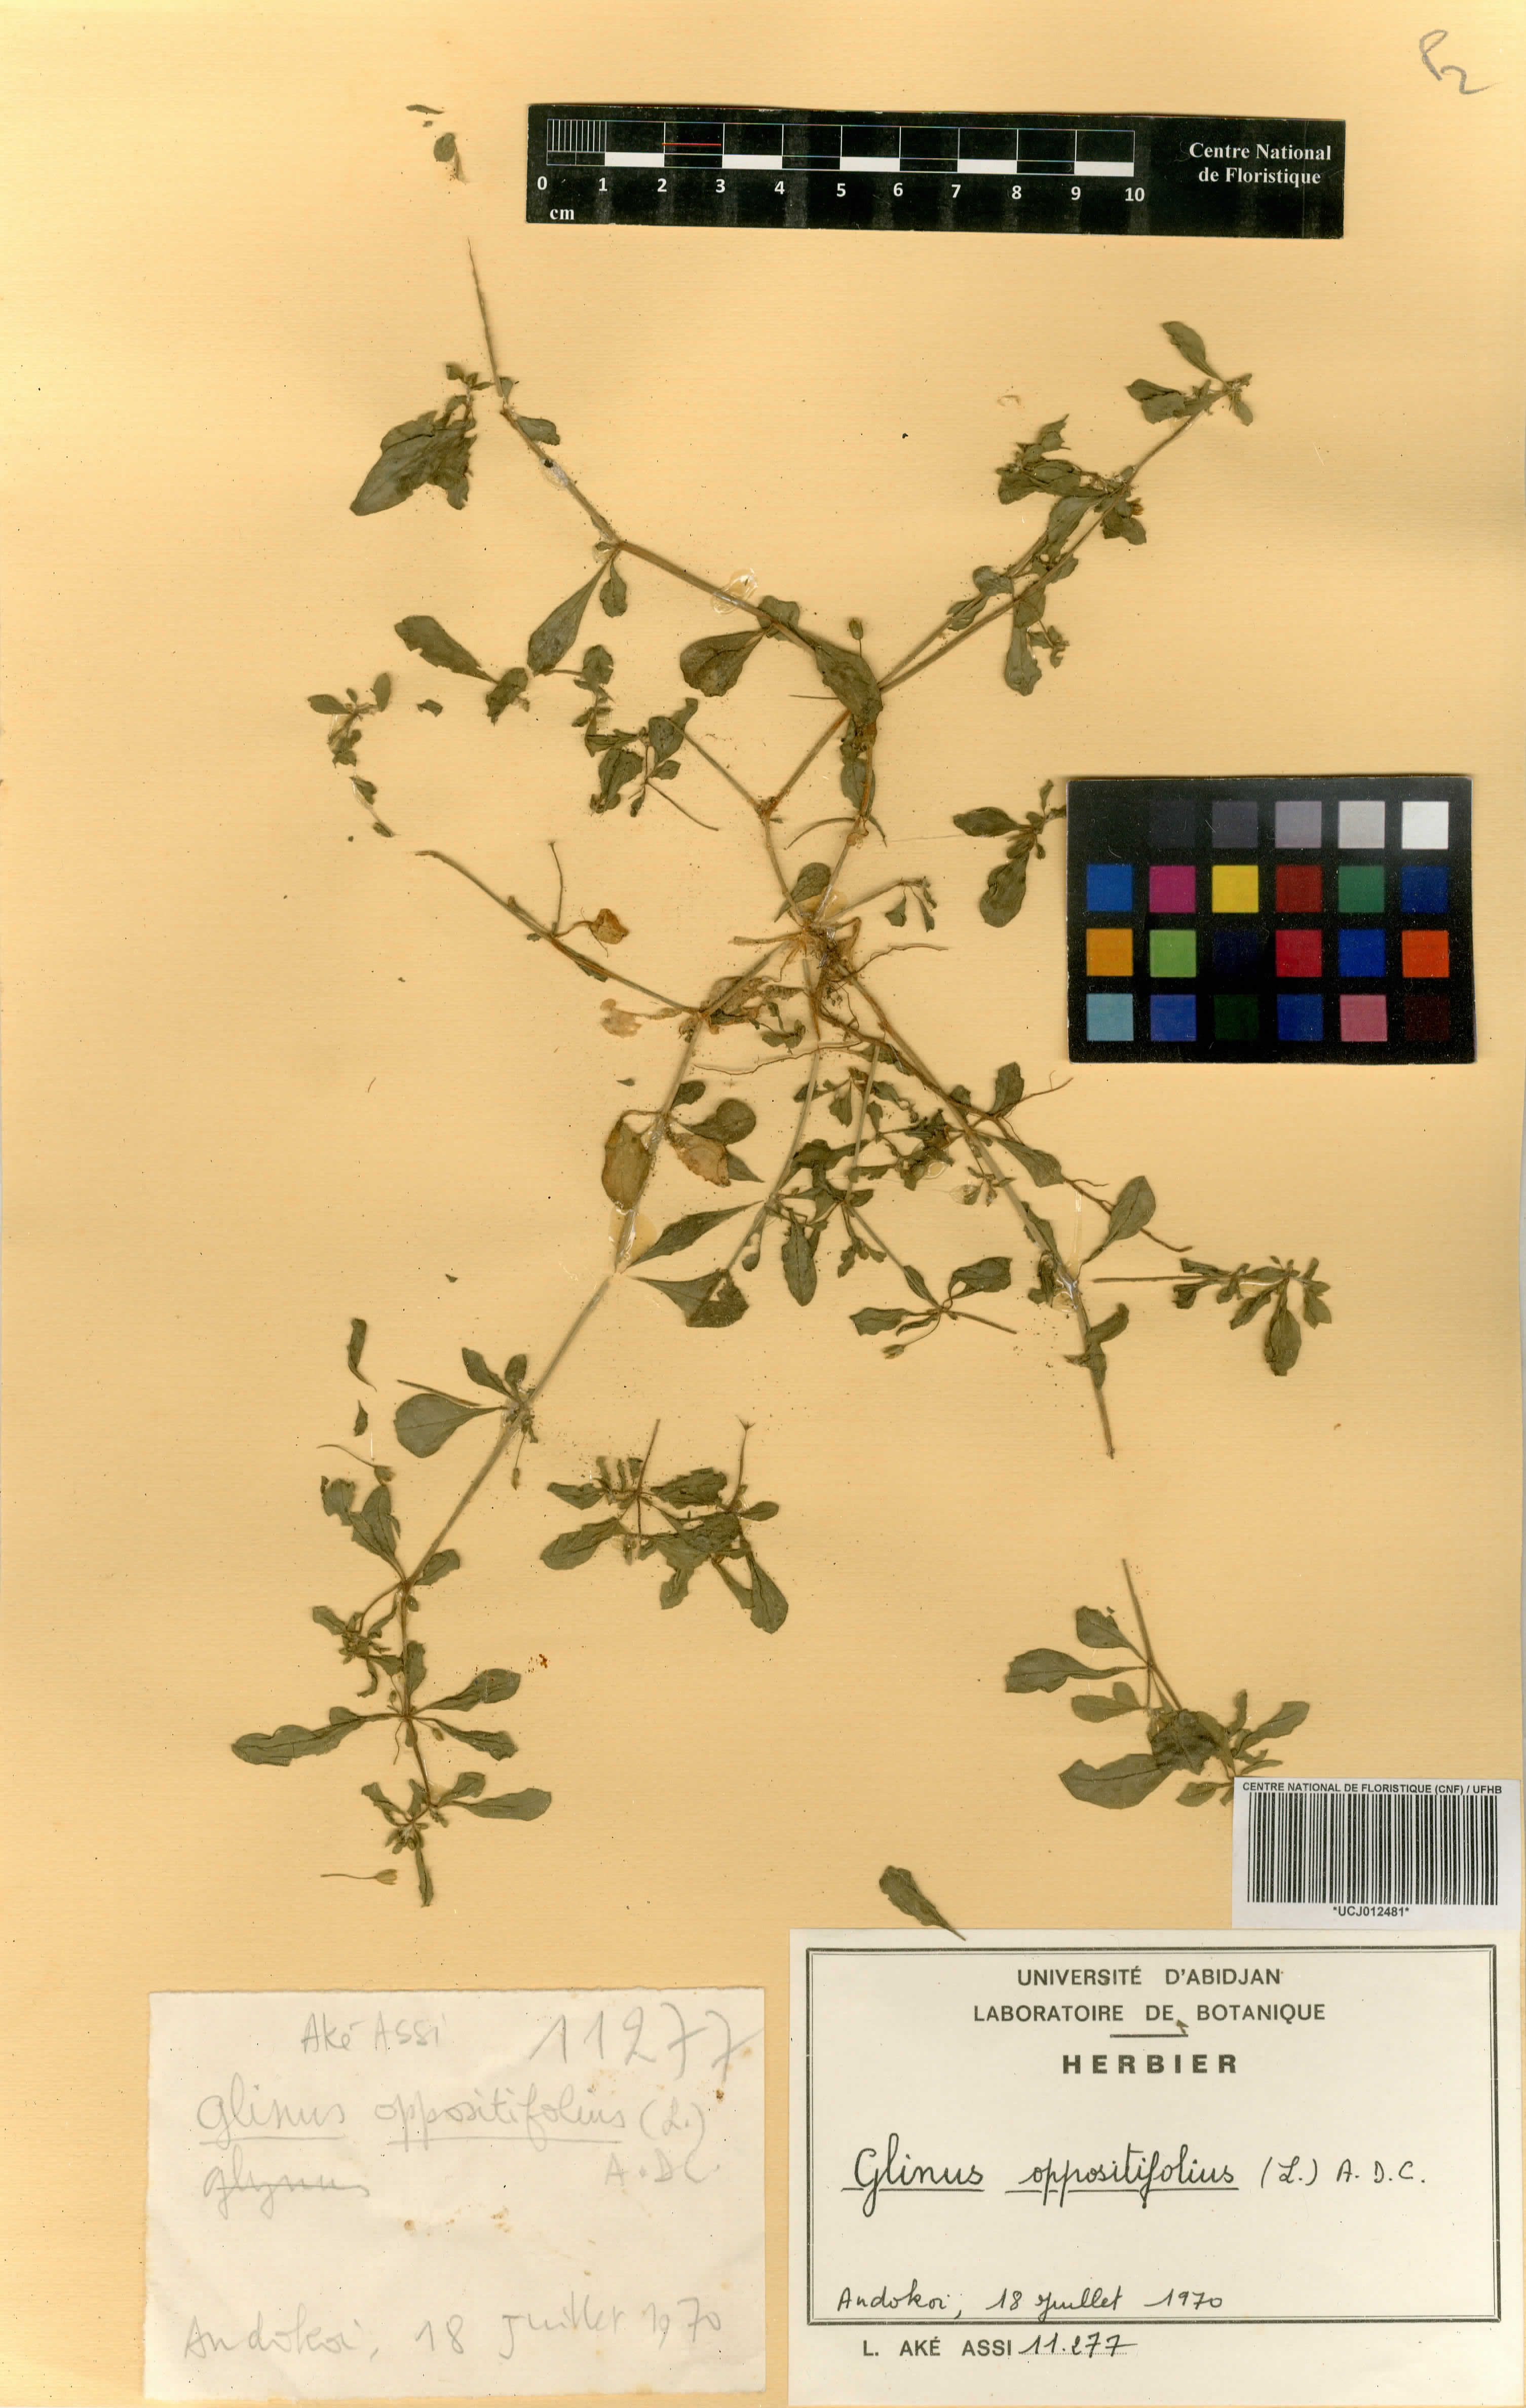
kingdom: Plantae
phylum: Tracheophyta
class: Magnoliopsida
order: Caryophyllales
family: Molluginaceae
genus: Glinus
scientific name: Glinus oppositifolius
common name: Slender carpetweed
